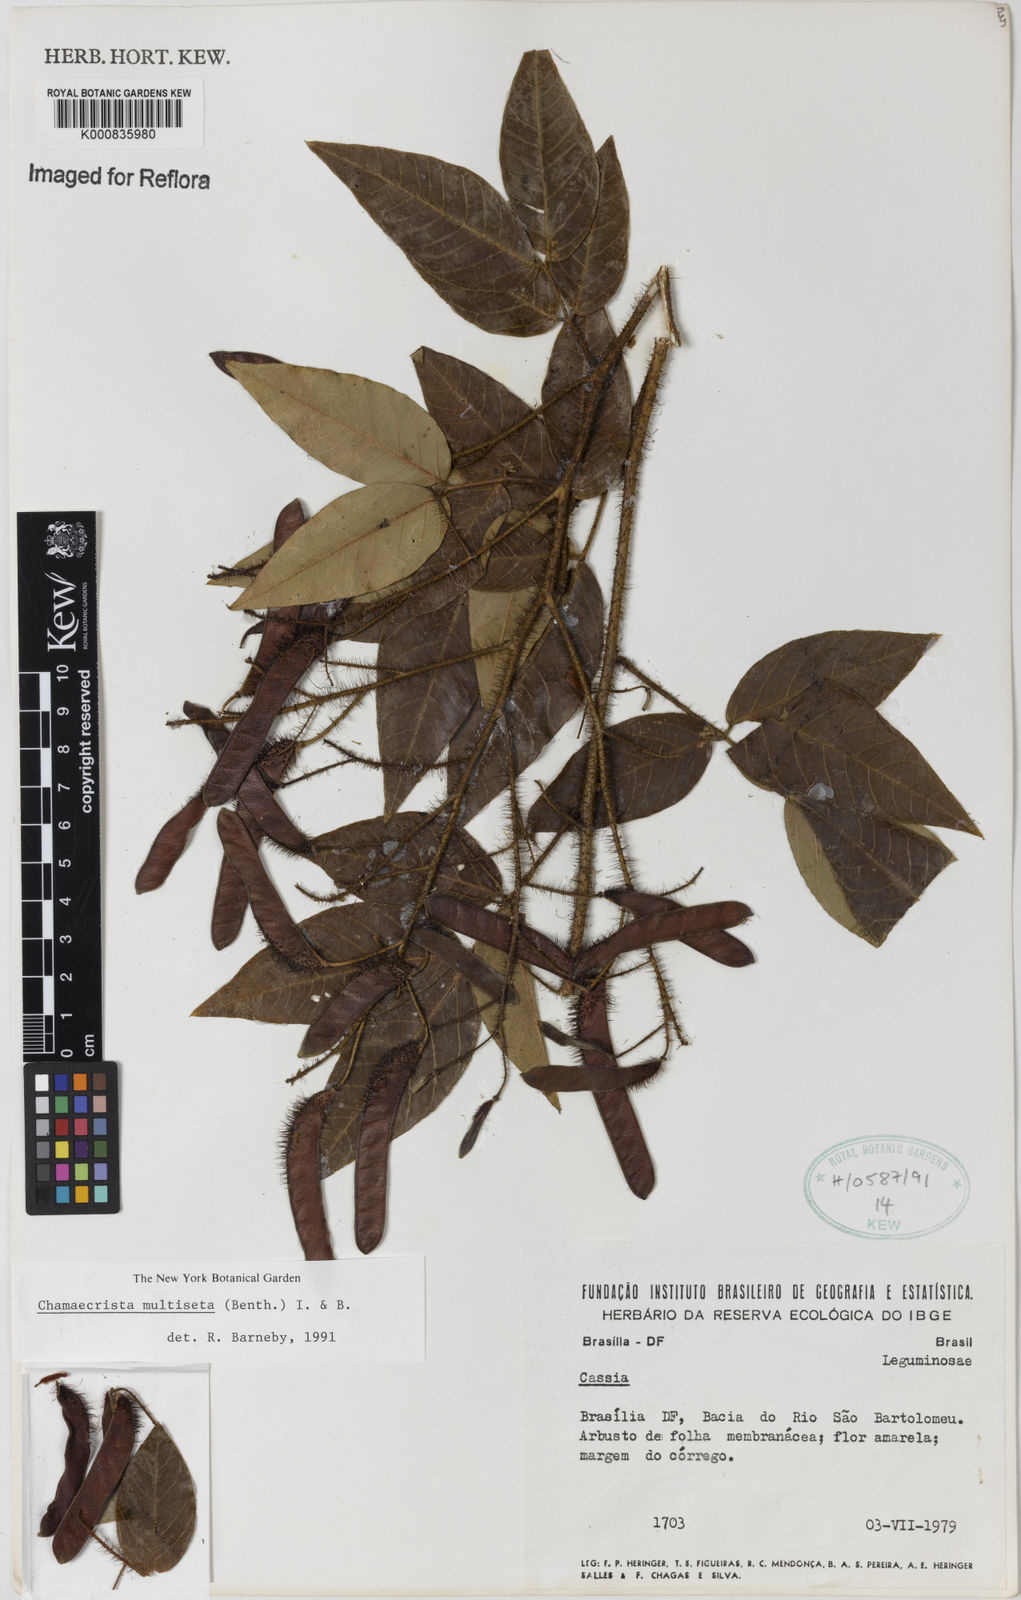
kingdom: Plantae
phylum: Tracheophyta
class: Magnoliopsida
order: Fabales
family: Fabaceae
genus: Chamaecrista
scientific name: Chamaecrista multiseta
